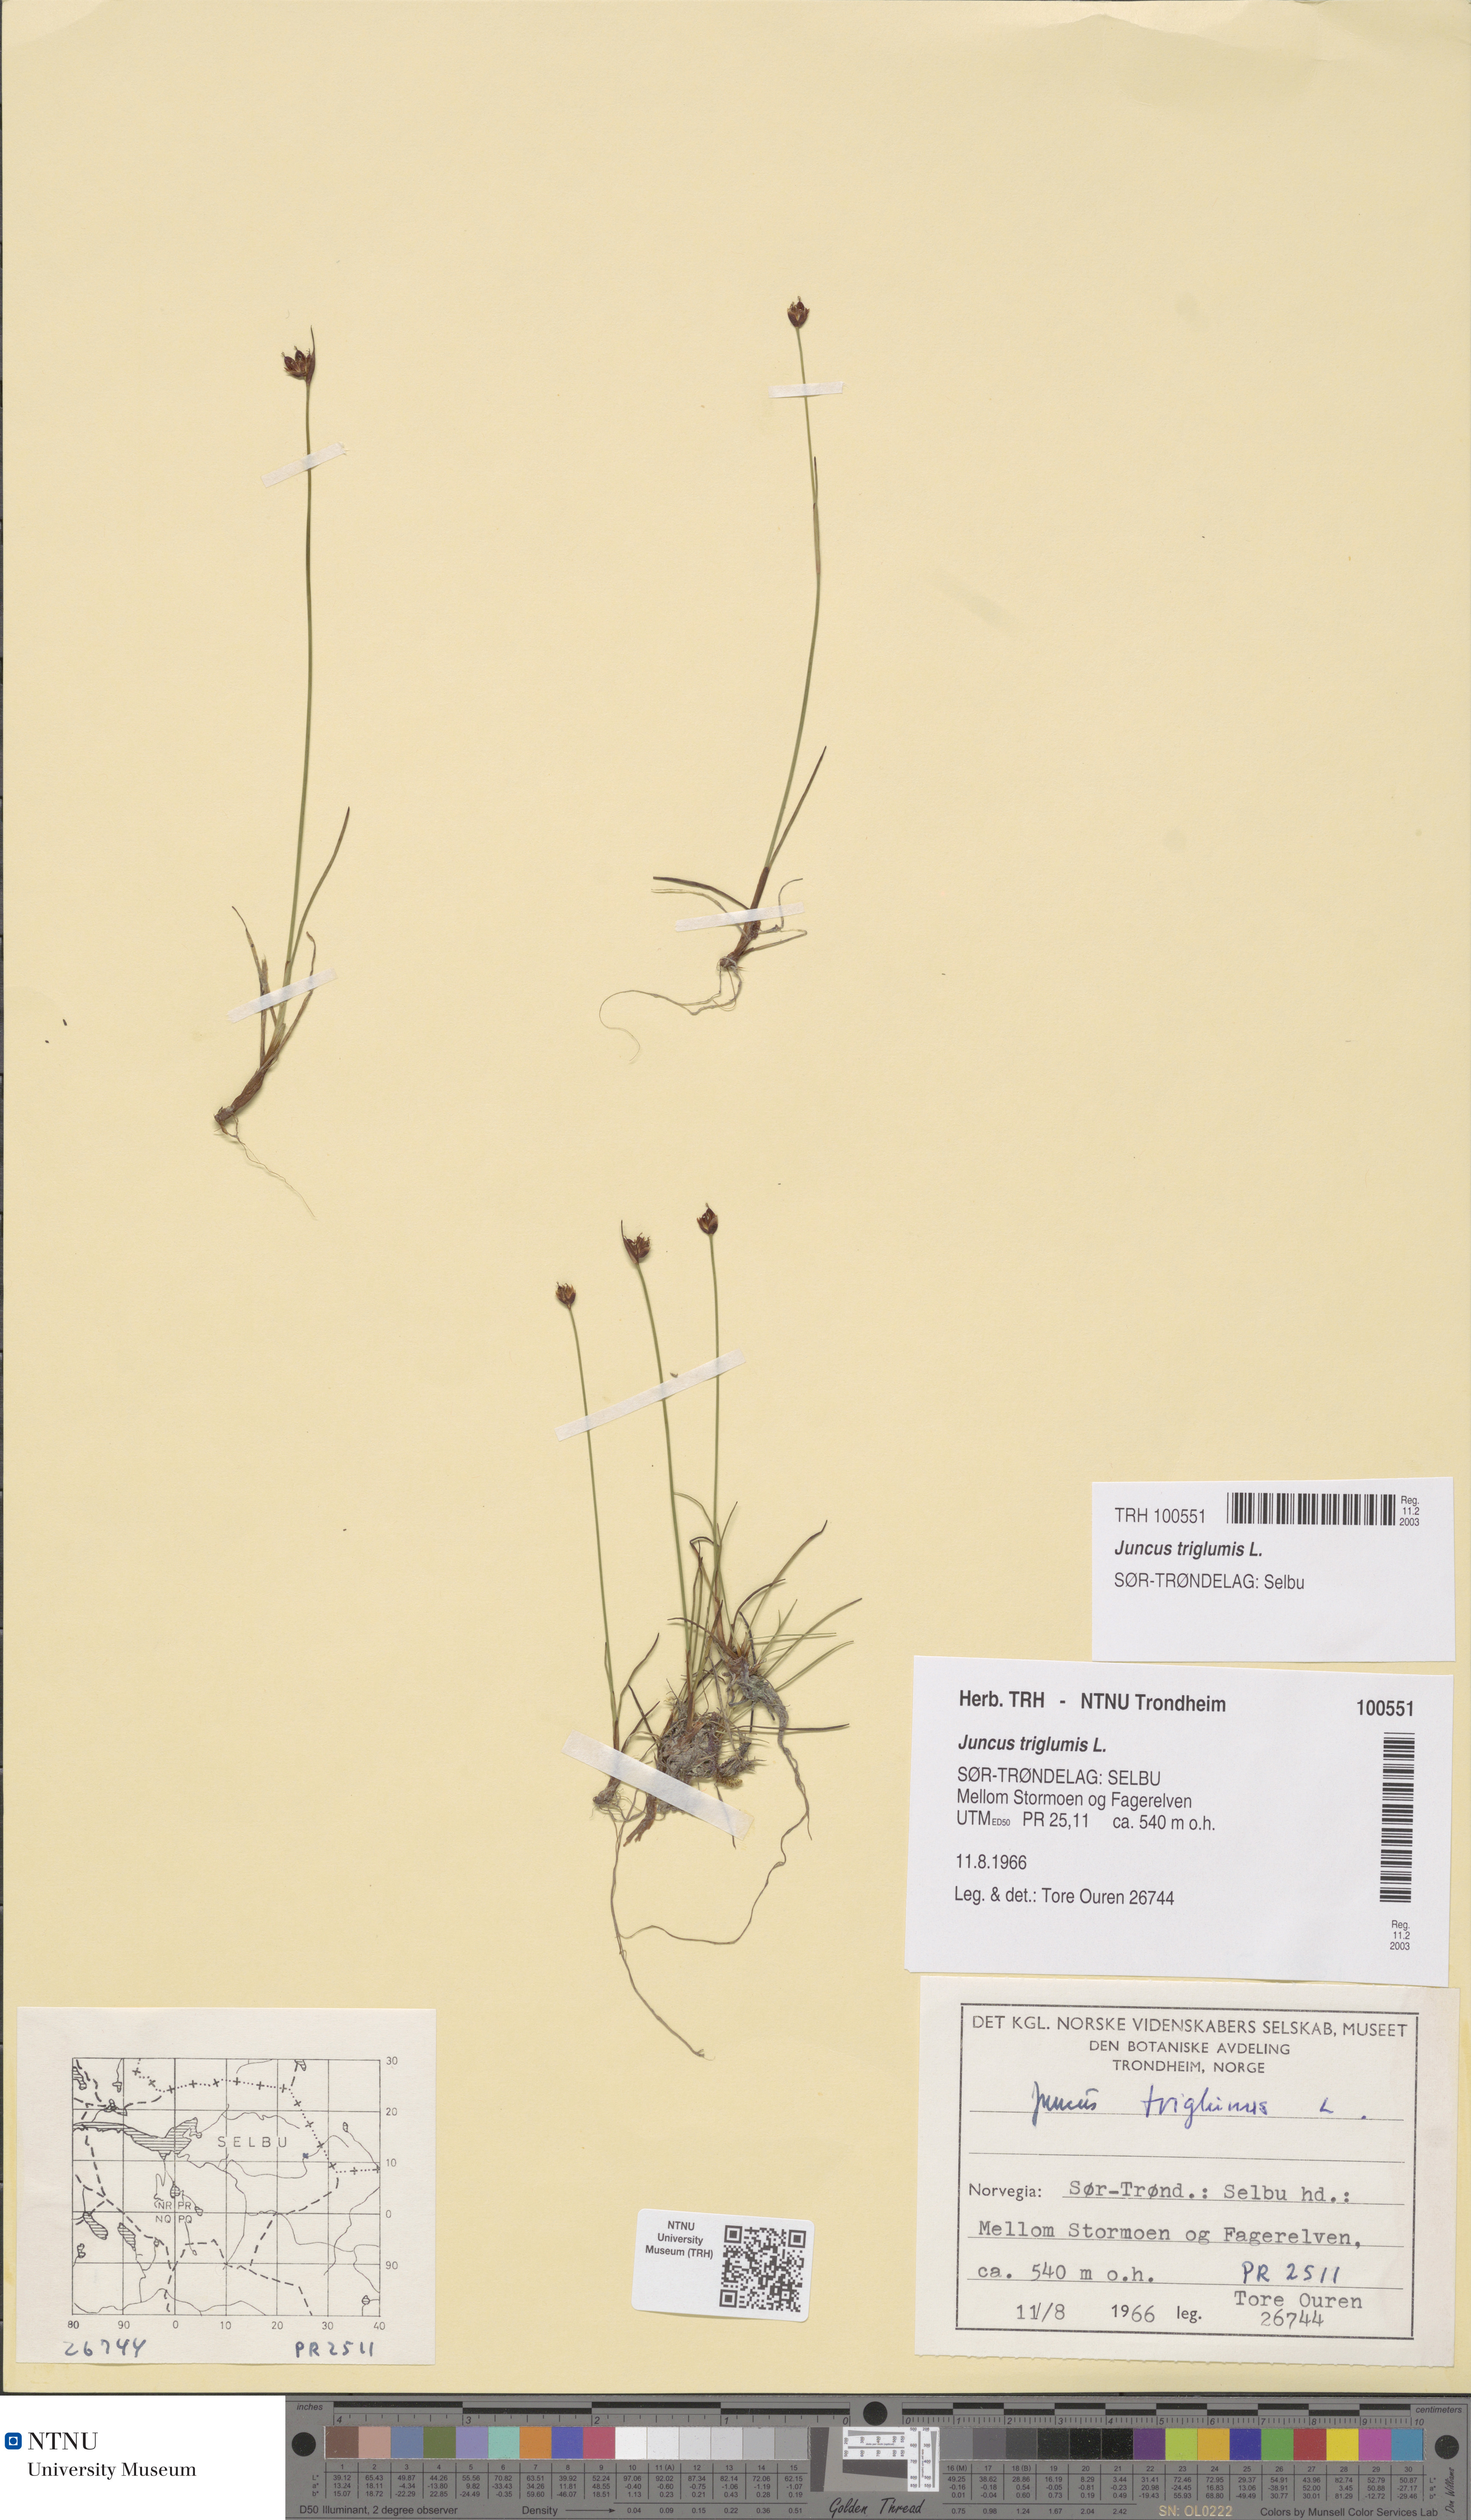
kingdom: Plantae
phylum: Tracheophyta
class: Liliopsida
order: Poales
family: Juncaceae
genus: Juncus
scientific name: Juncus triglumis
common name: Three-flowered rush
